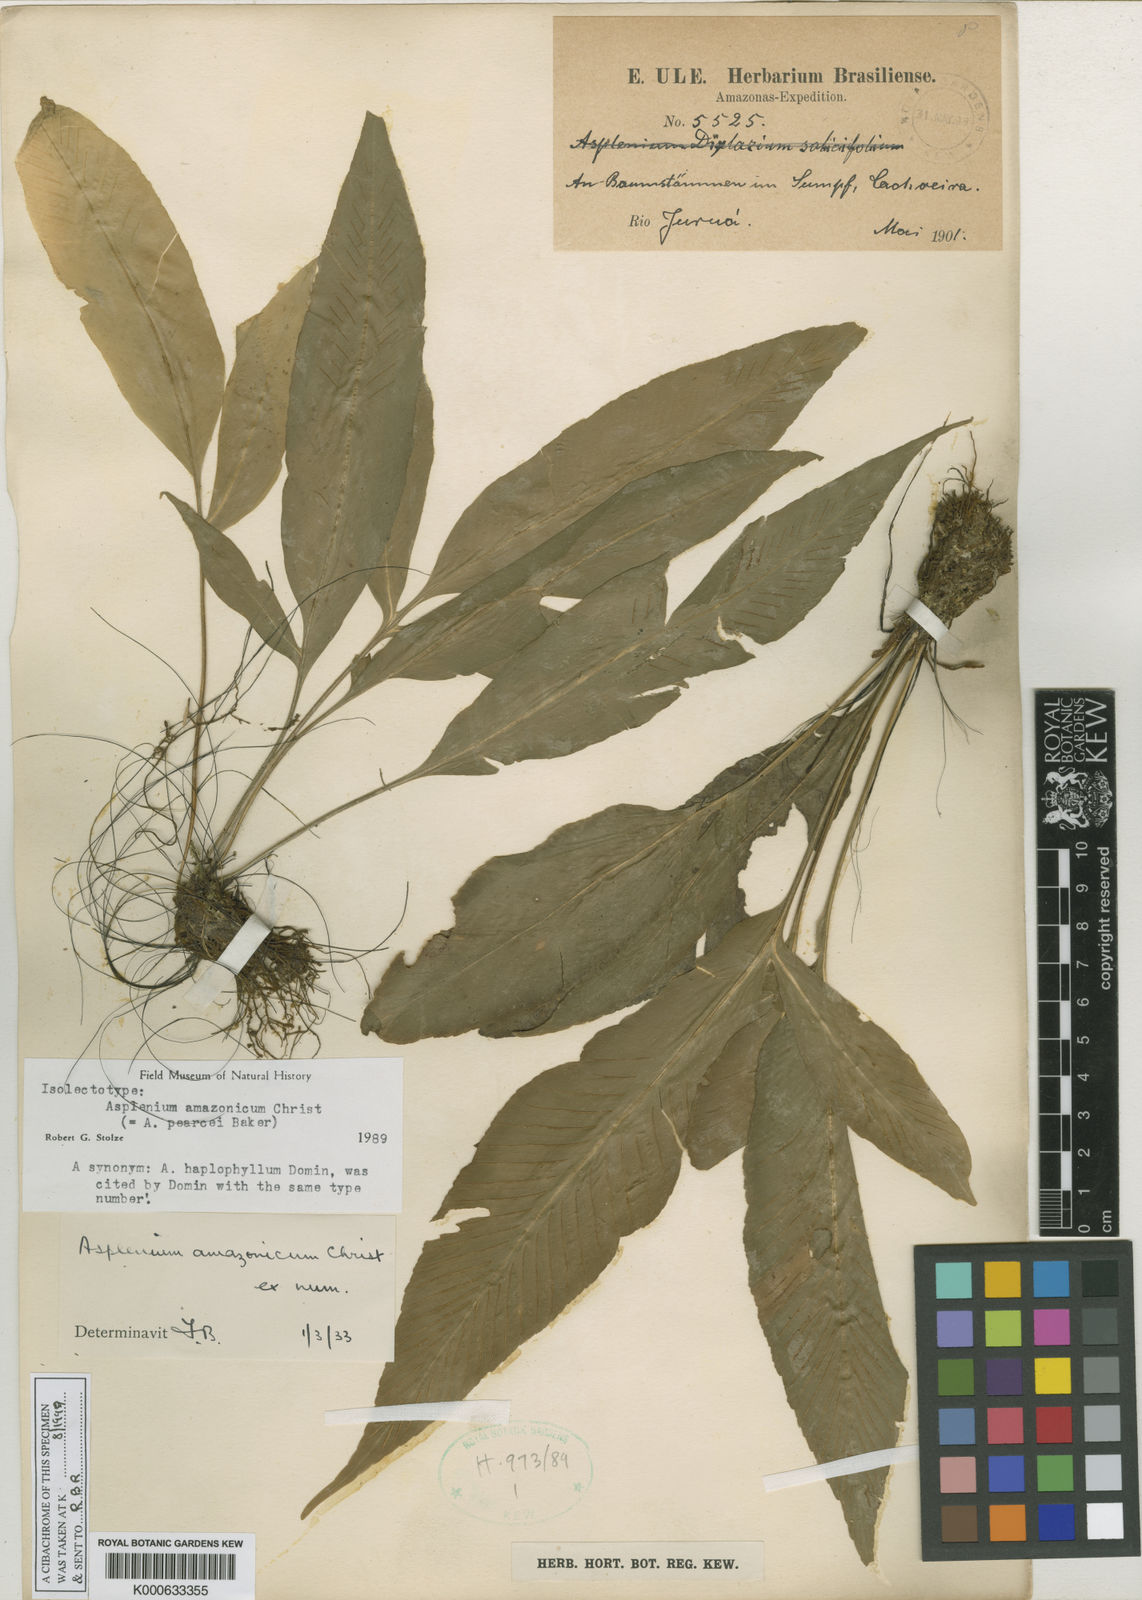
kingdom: Plantae
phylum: Tracheophyta
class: Polypodiopsida
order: Polypodiales
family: Aspleniaceae
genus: Asplenium
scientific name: Asplenium pearcei
